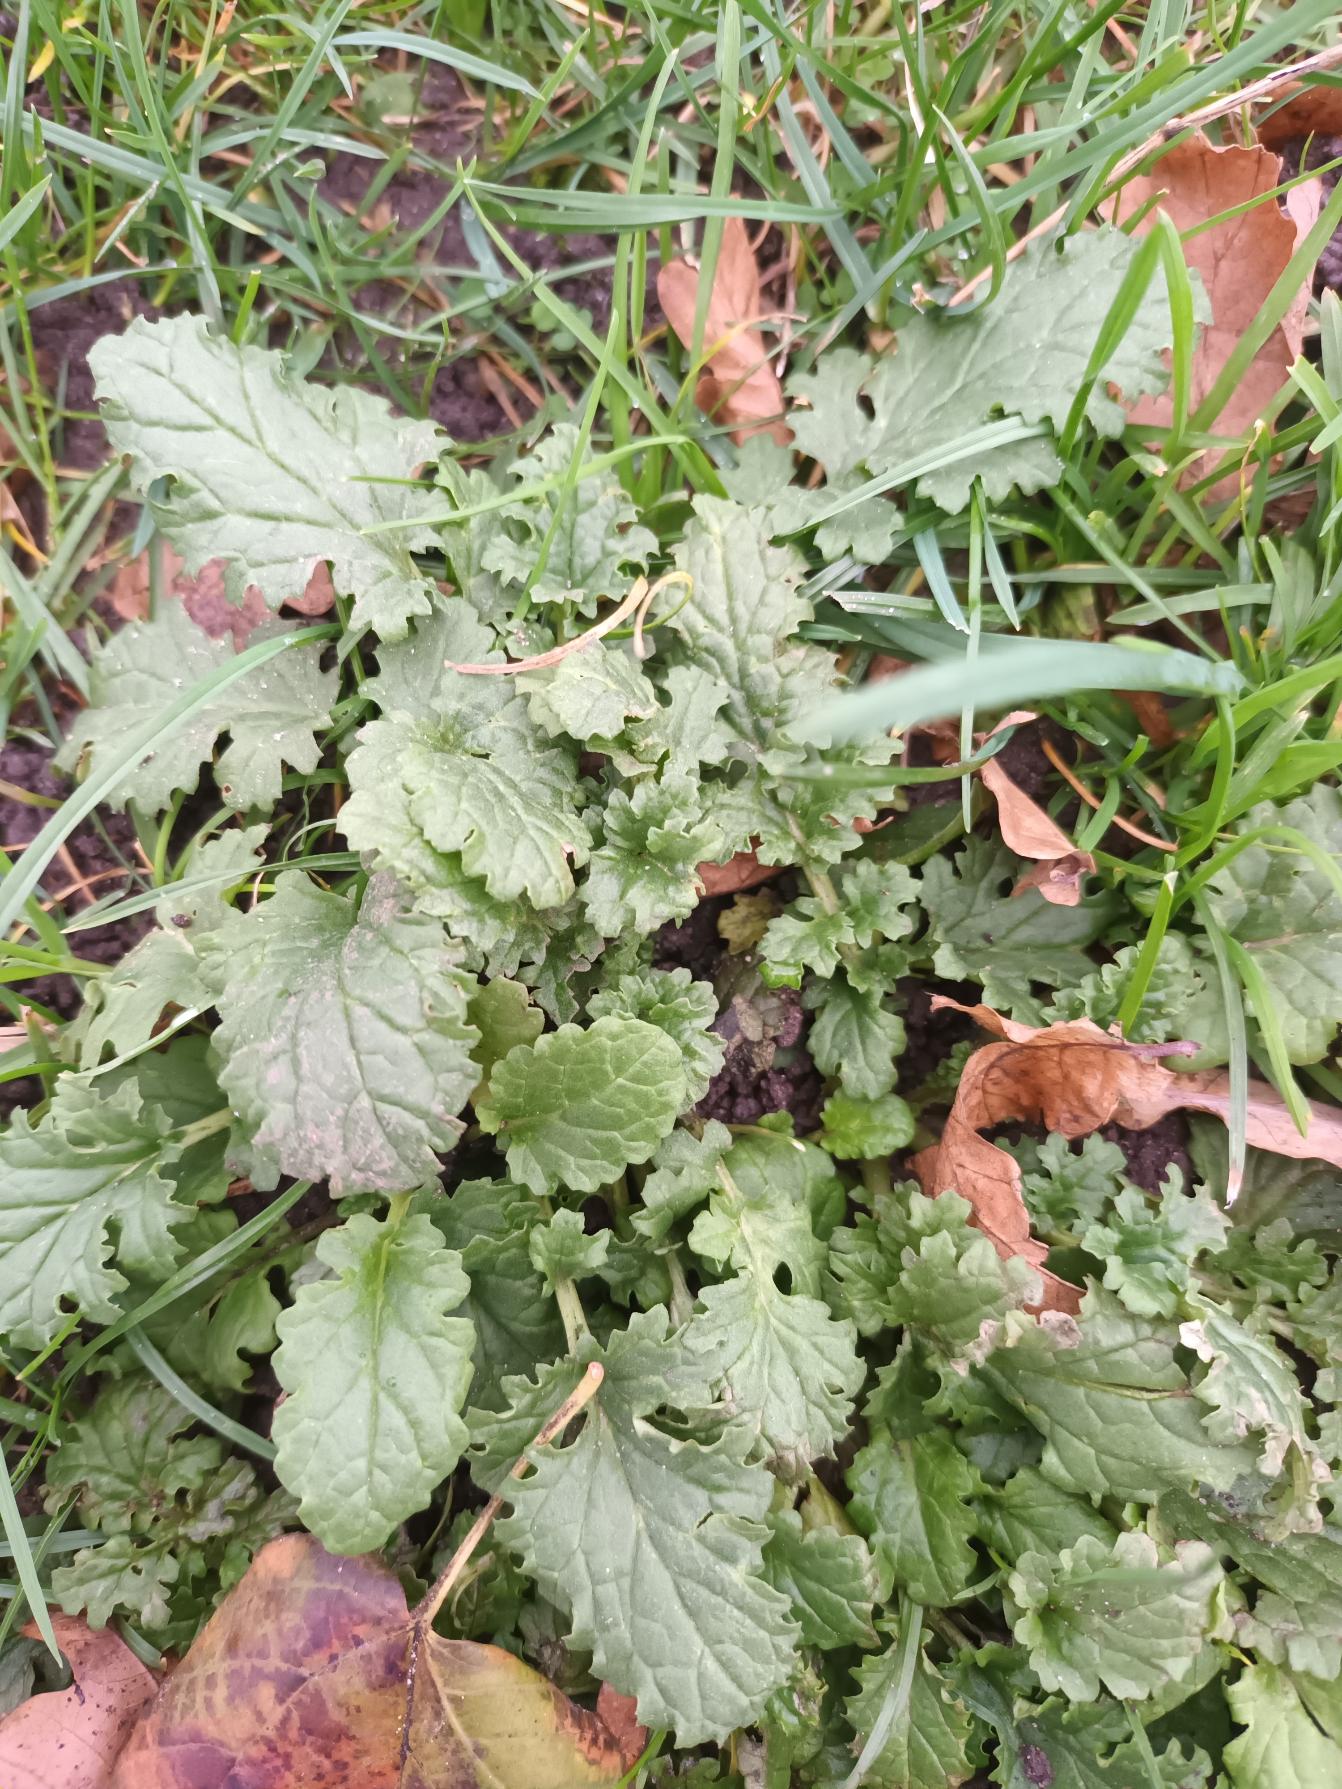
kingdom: Plantae
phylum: Tracheophyta
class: Magnoliopsida
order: Asterales
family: Asteraceae
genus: Jacobaea
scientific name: Jacobaea vulgaris
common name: Eng-brandbæger
